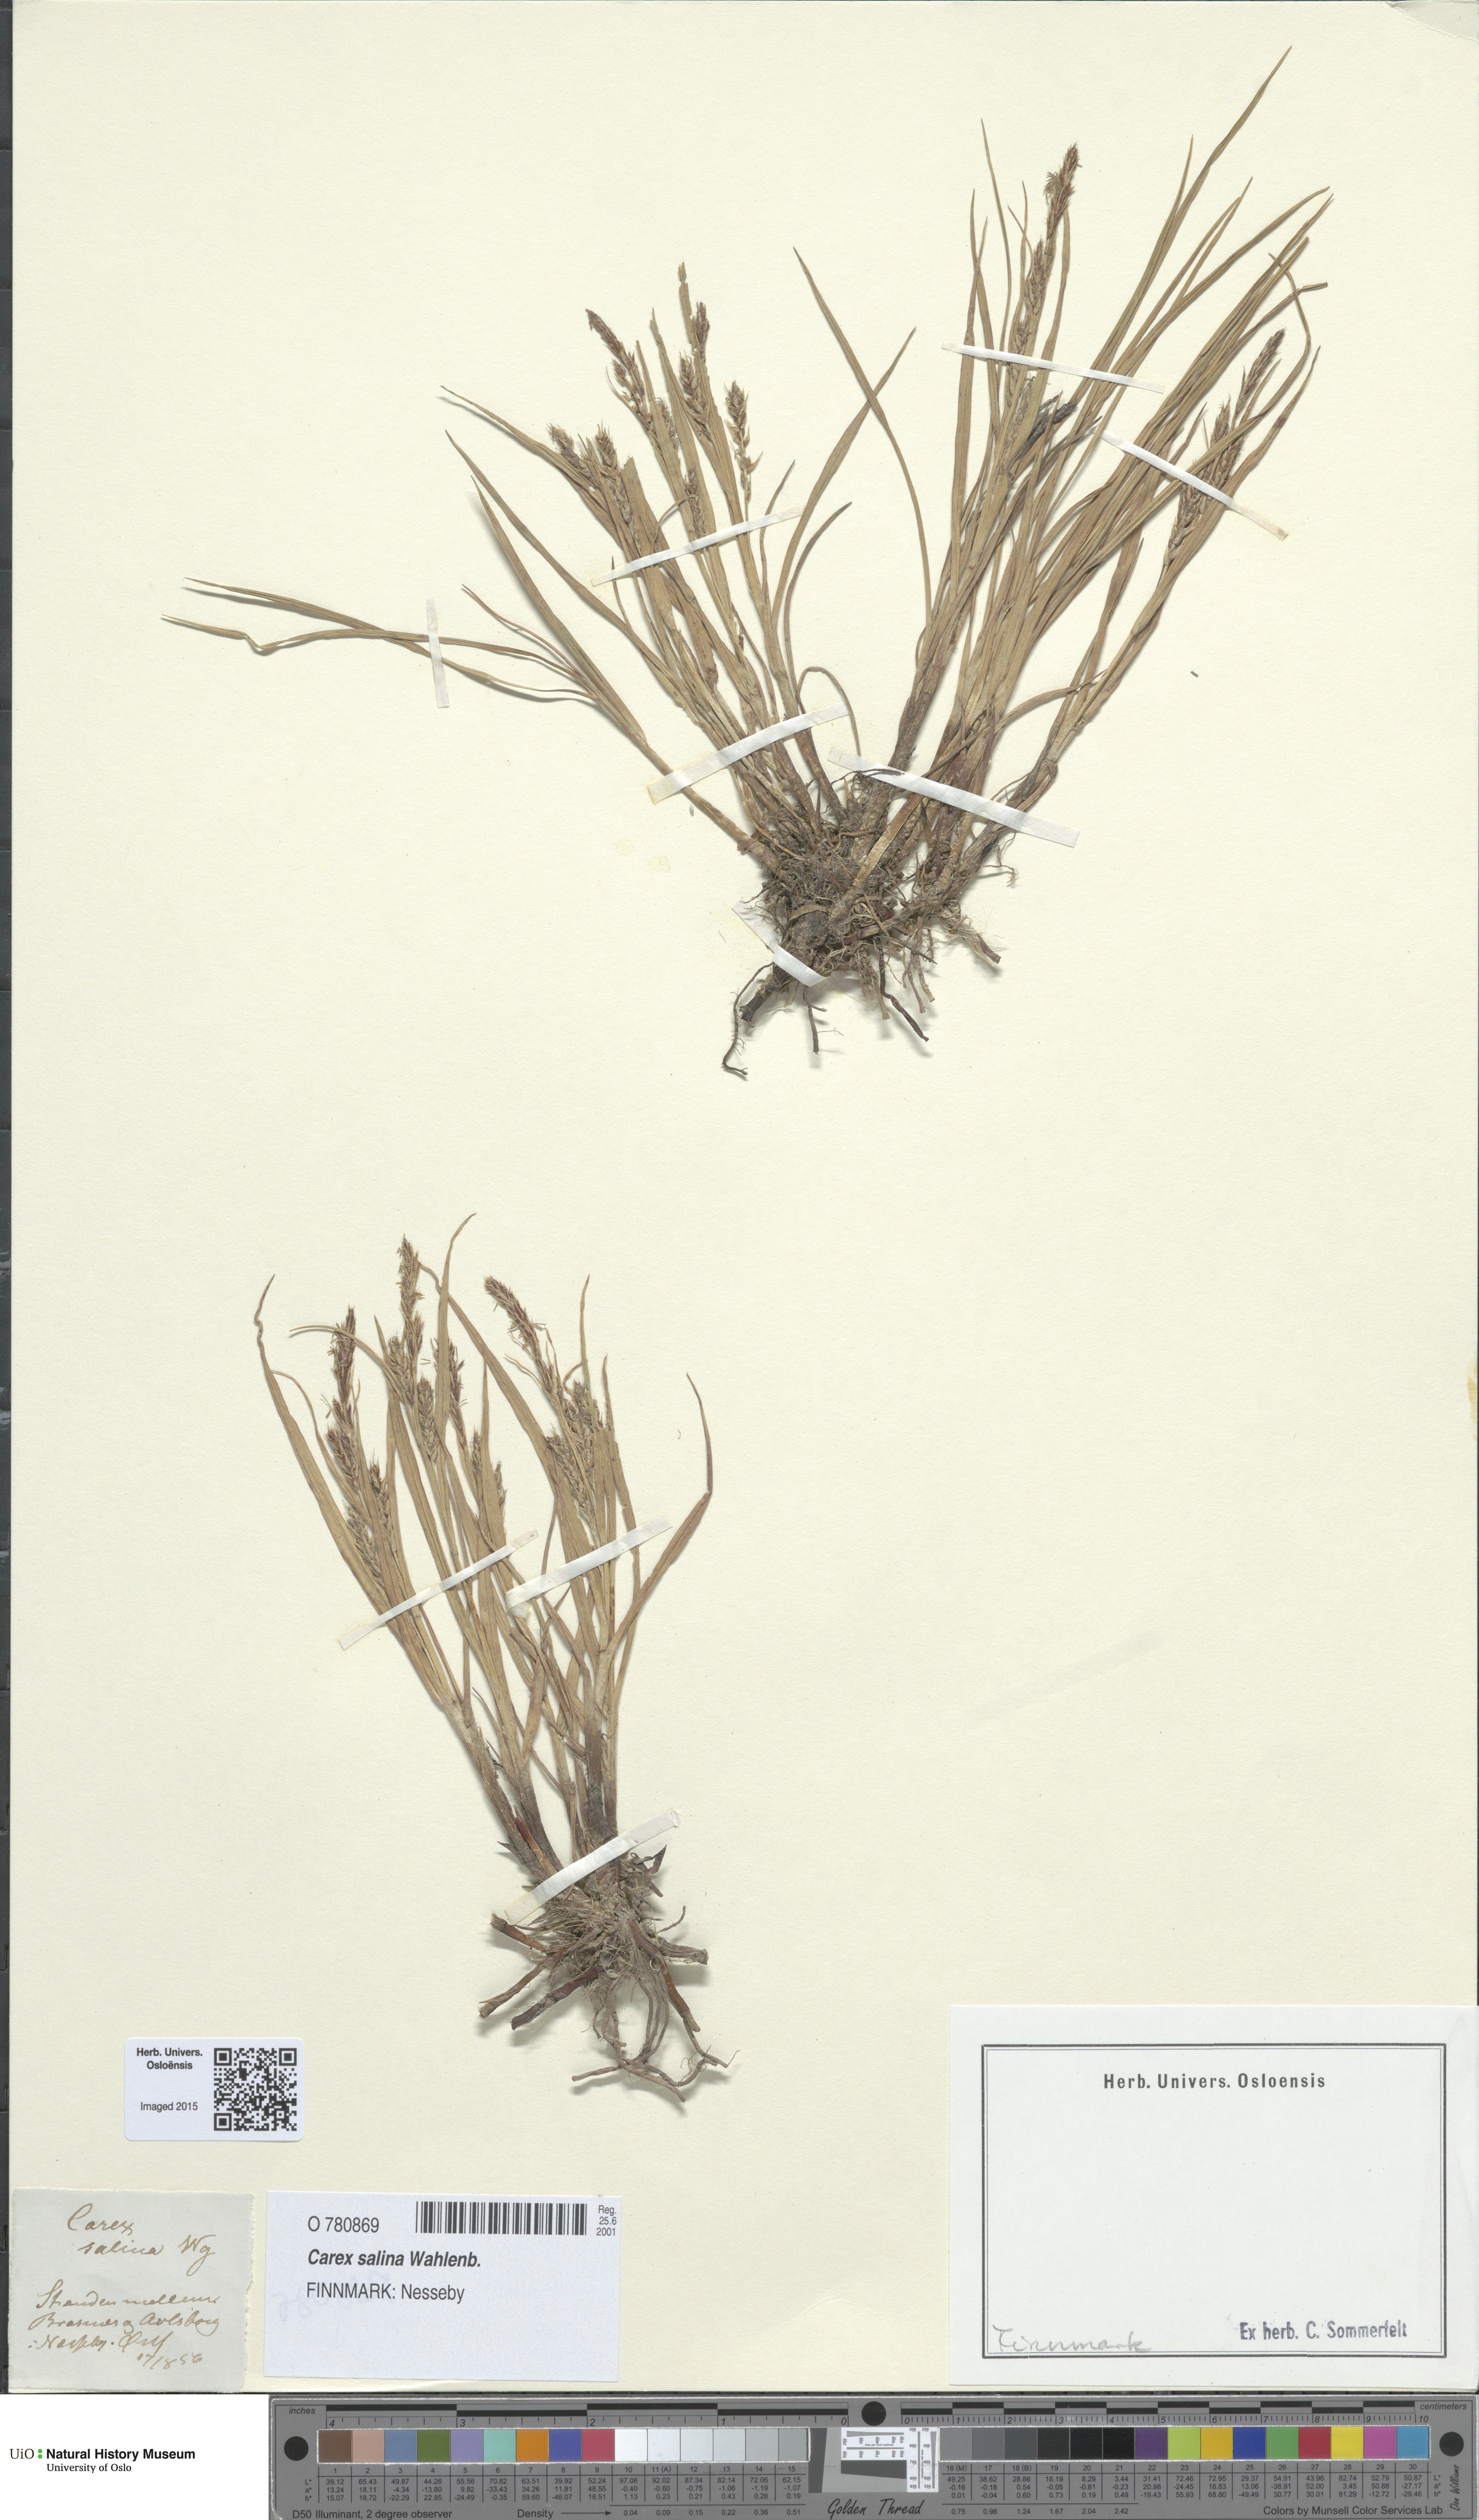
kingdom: Plantae
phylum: Tracheophyta
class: Liliopsida
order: Poales
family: Cyperaceae
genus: Carex
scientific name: Carex salina
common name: Saltmarsh sedge
